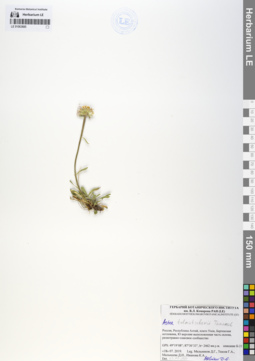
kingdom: Plantae
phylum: Tracheophyta
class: Magnoliopsida
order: Asterales
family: Asteraceae
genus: Aster
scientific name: Aster alpinus
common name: Alpine aster
